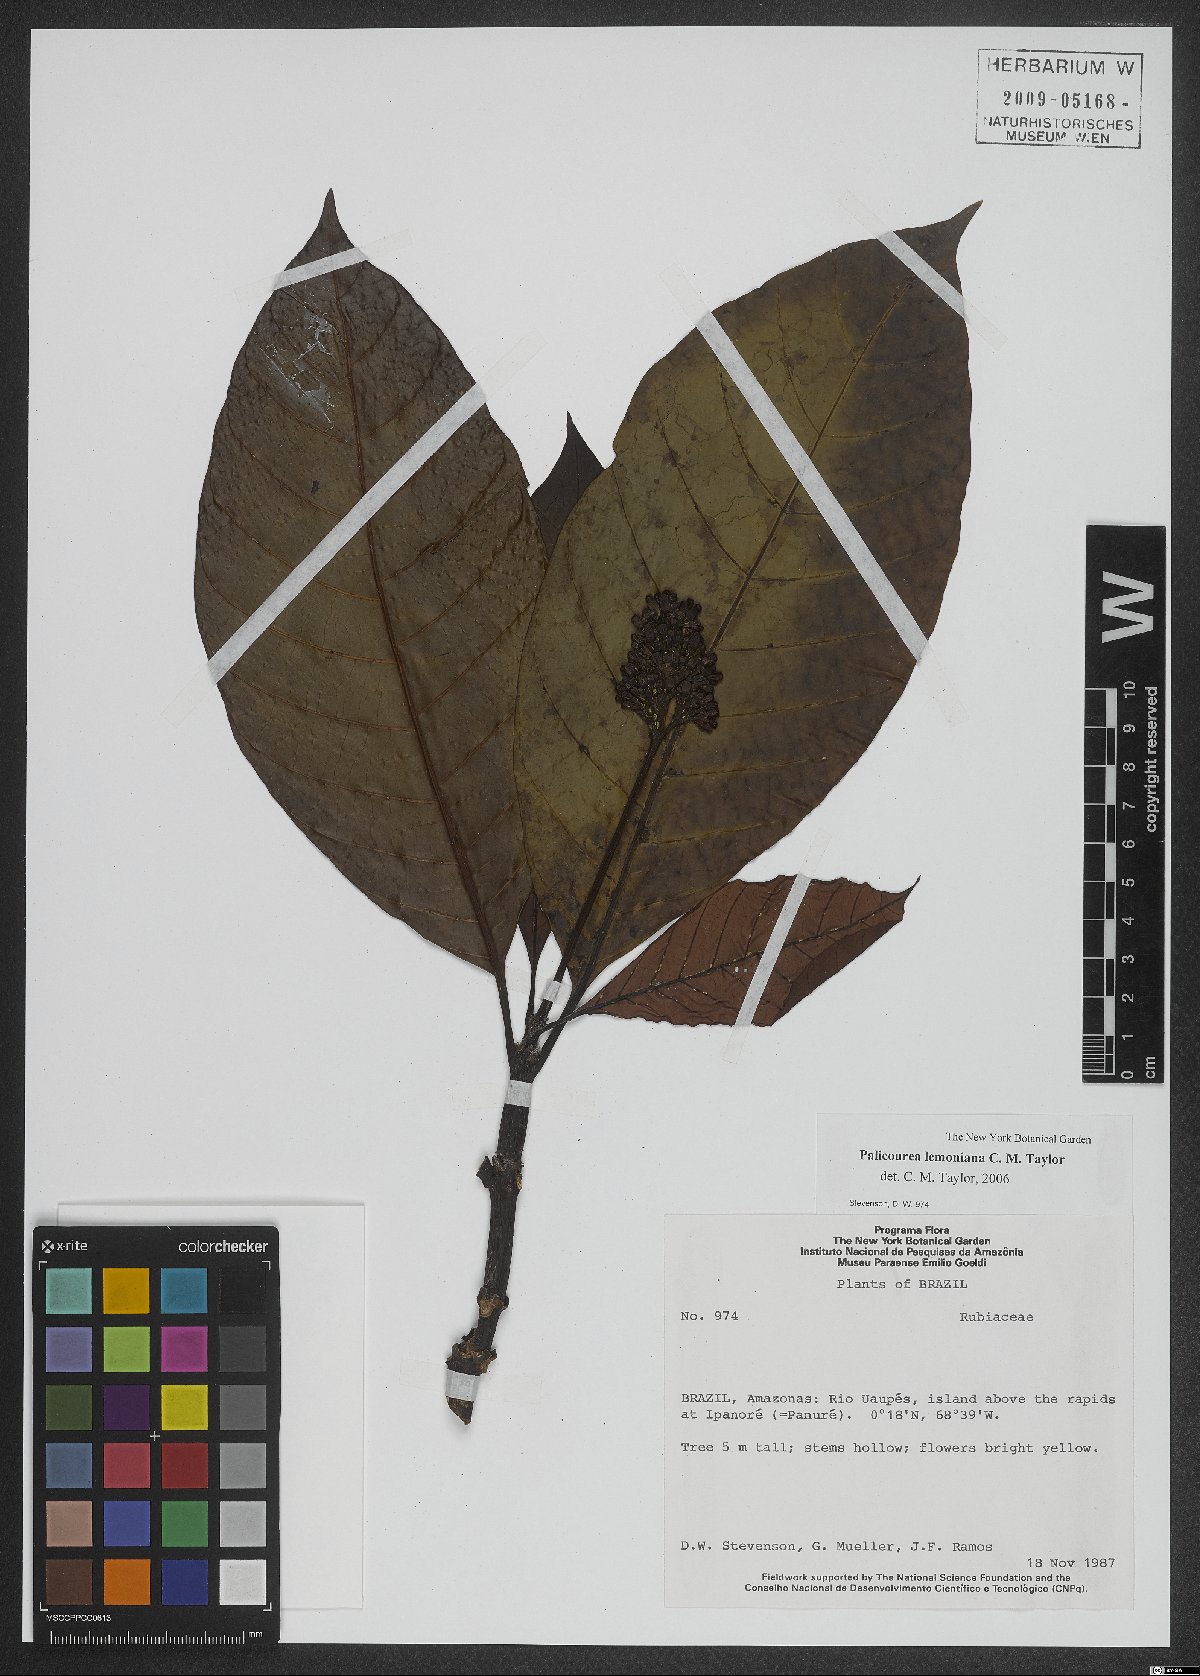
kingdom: Plantae
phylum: Tracheophyta
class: Magnoliopsida
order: Gentianales
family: Rubiaceae
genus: Palicourea
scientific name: Palicourea lemoniana
